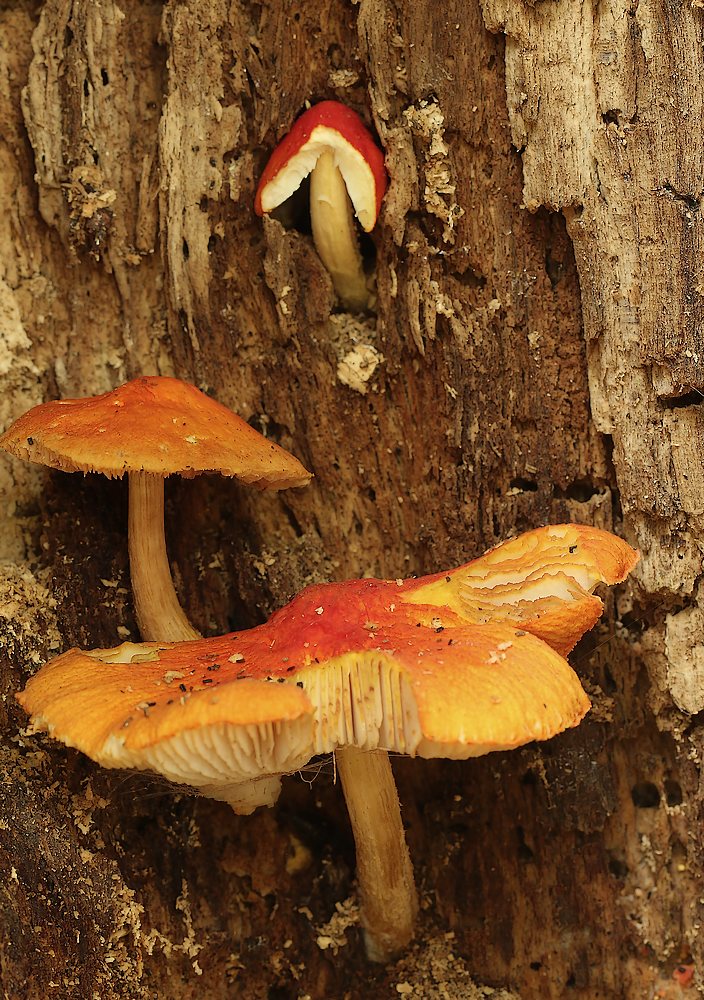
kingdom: Fungi
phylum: Basidiomycota
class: Agaricomycetes
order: Agaricales
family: Pluteaceae
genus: Pluteus
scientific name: Pluteus aurantiorugosus
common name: skarlagen-skærmhat
